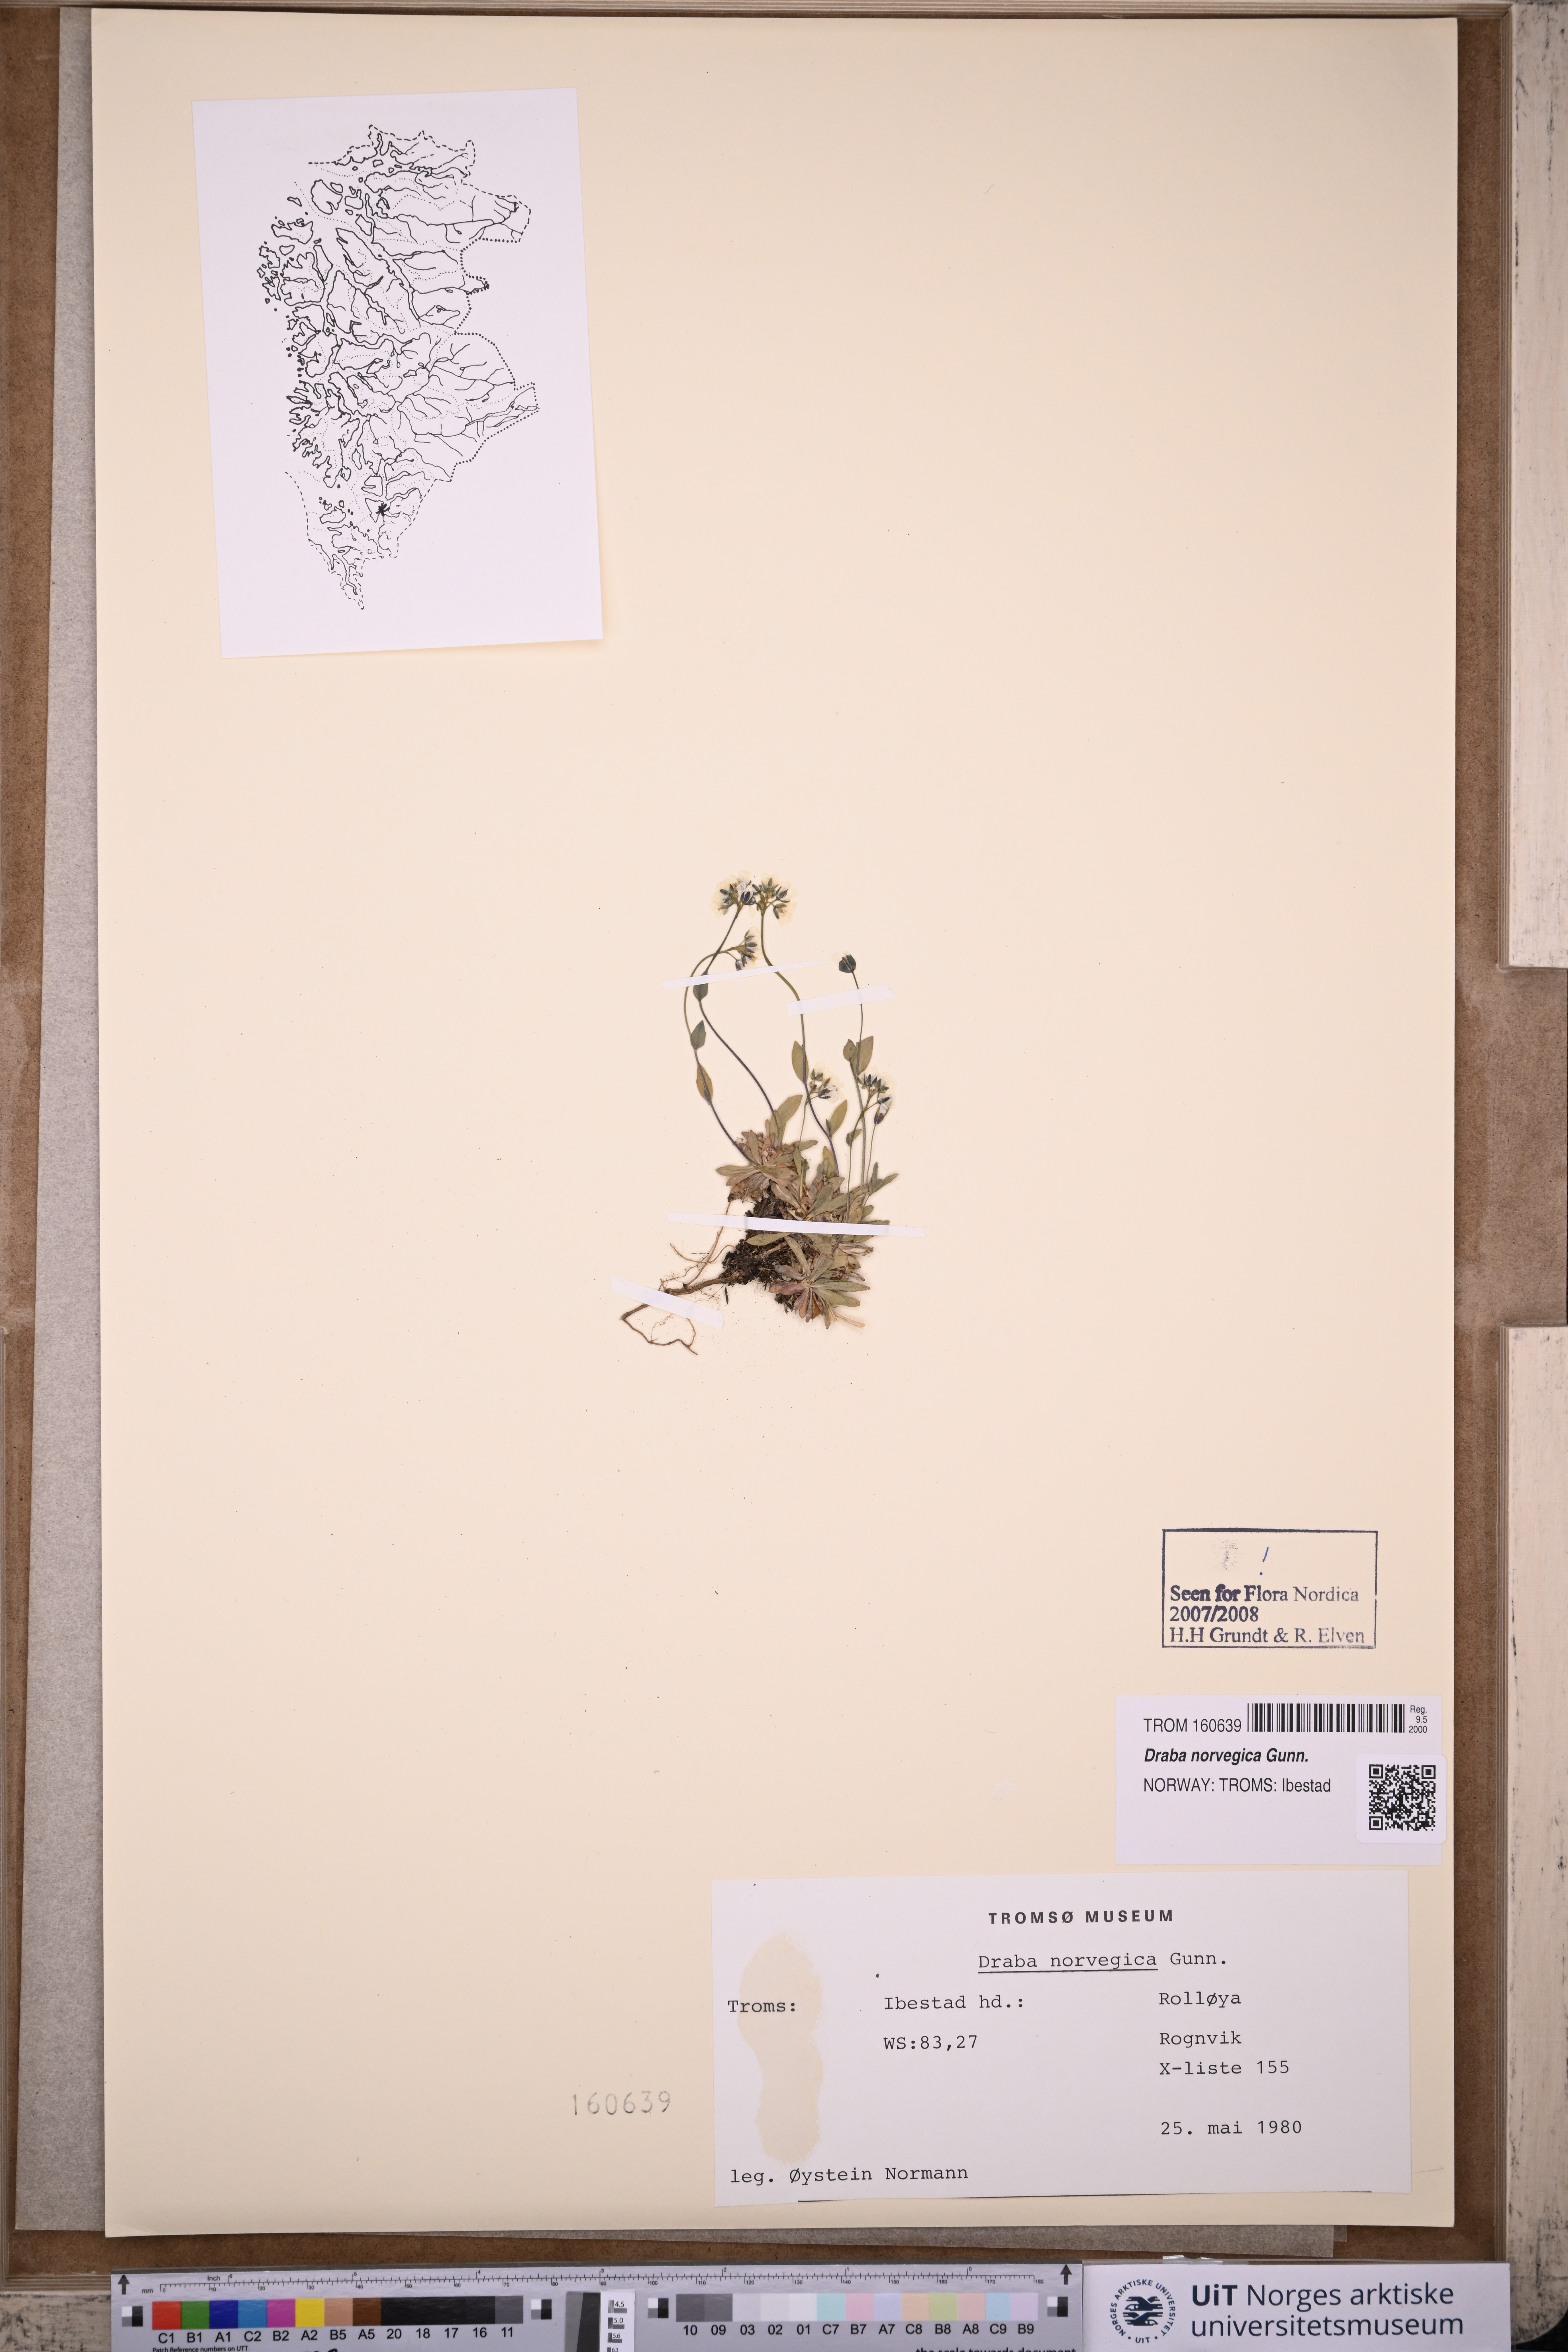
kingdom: Plantae
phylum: Tracheophyta
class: Magnoliopsida
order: Brassicales
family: Brassicaceae
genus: Draba
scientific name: Draba norvegica
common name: Rock whitlowgrass
